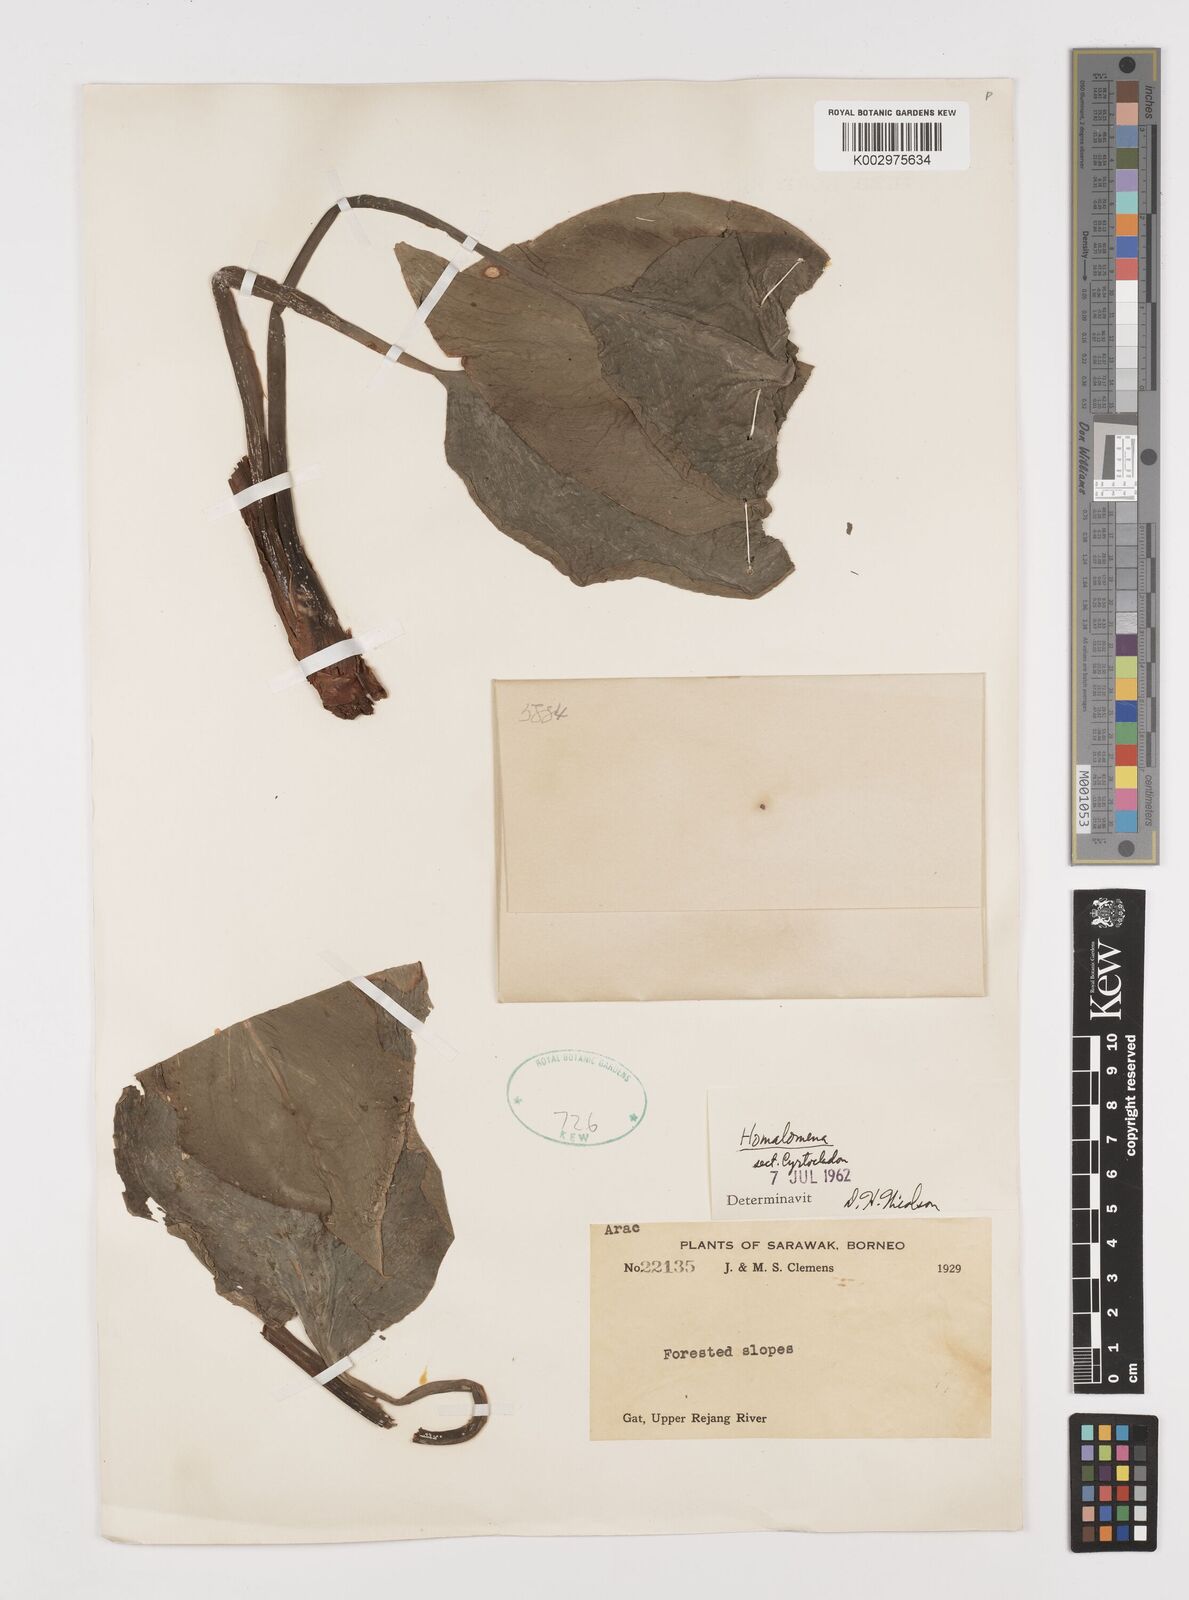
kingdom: Plantae
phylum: Tracheophyta
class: Liliopsida
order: Alismatales
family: Araceae
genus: Homalomena
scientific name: Homalomena
